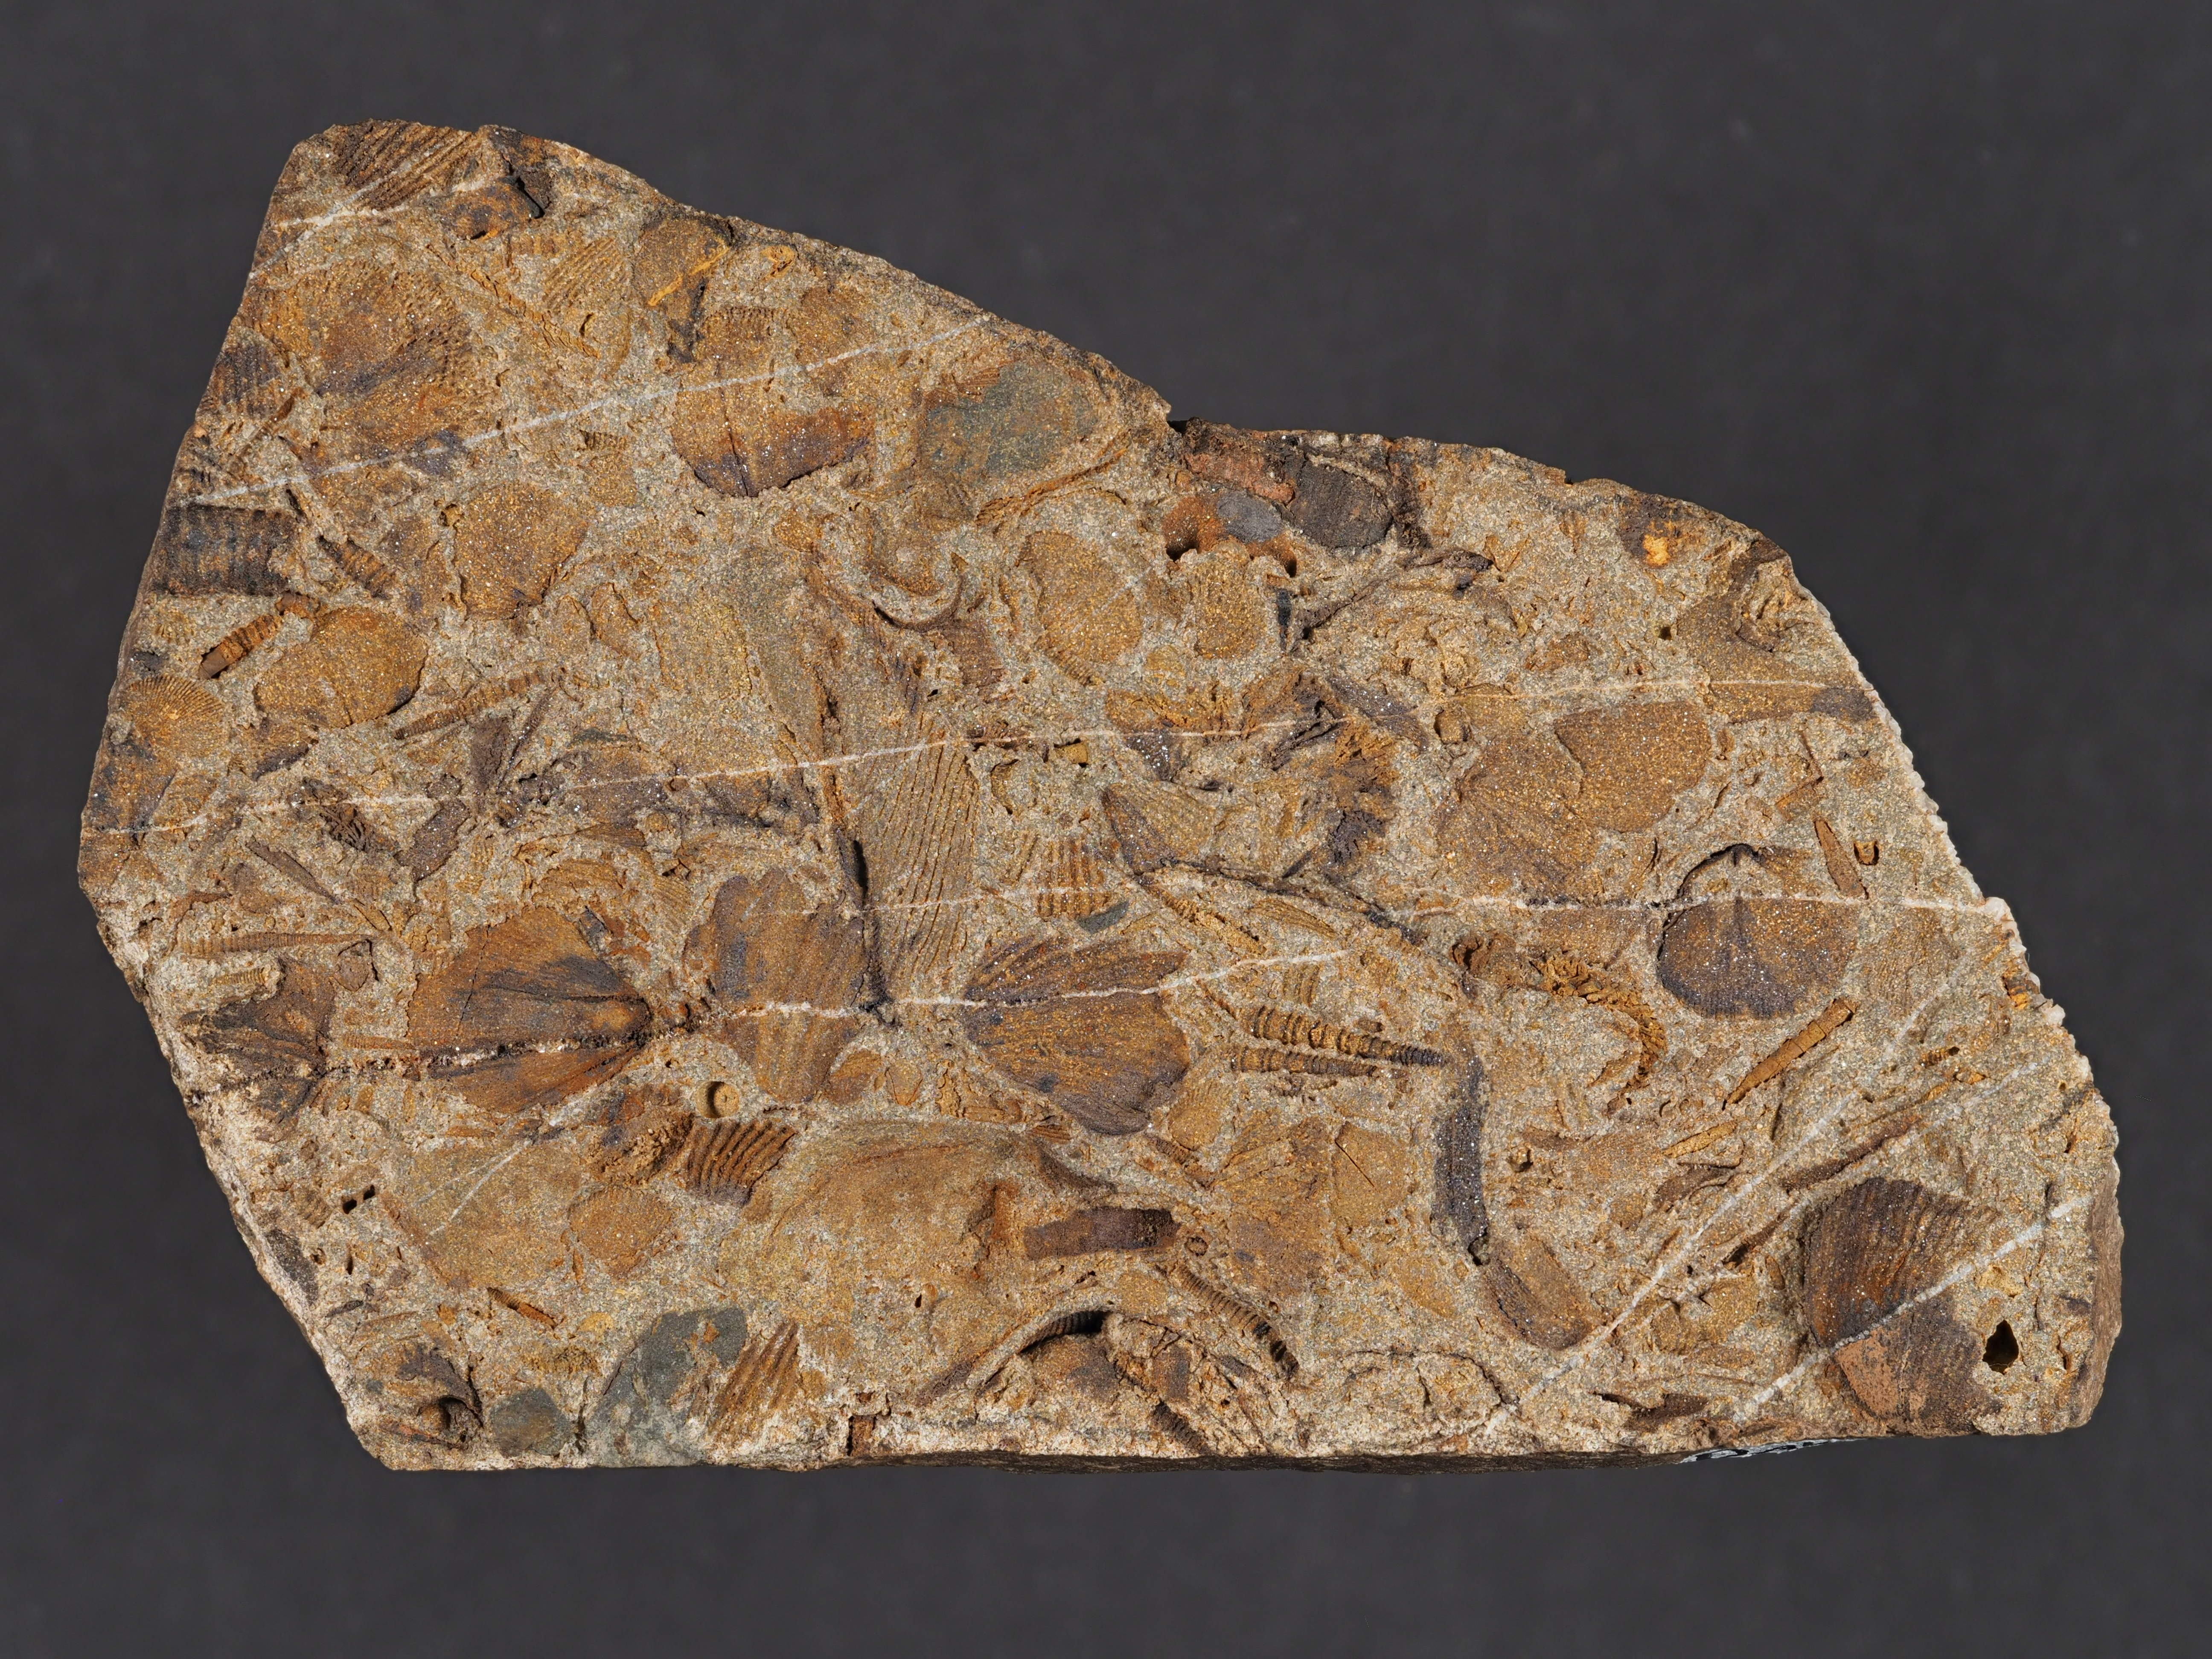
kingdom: Animalia
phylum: Mollusca
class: Bivalvia
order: Modiomorphida
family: Modiomorphidae
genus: Goniomorpha
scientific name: Goniomorpha
